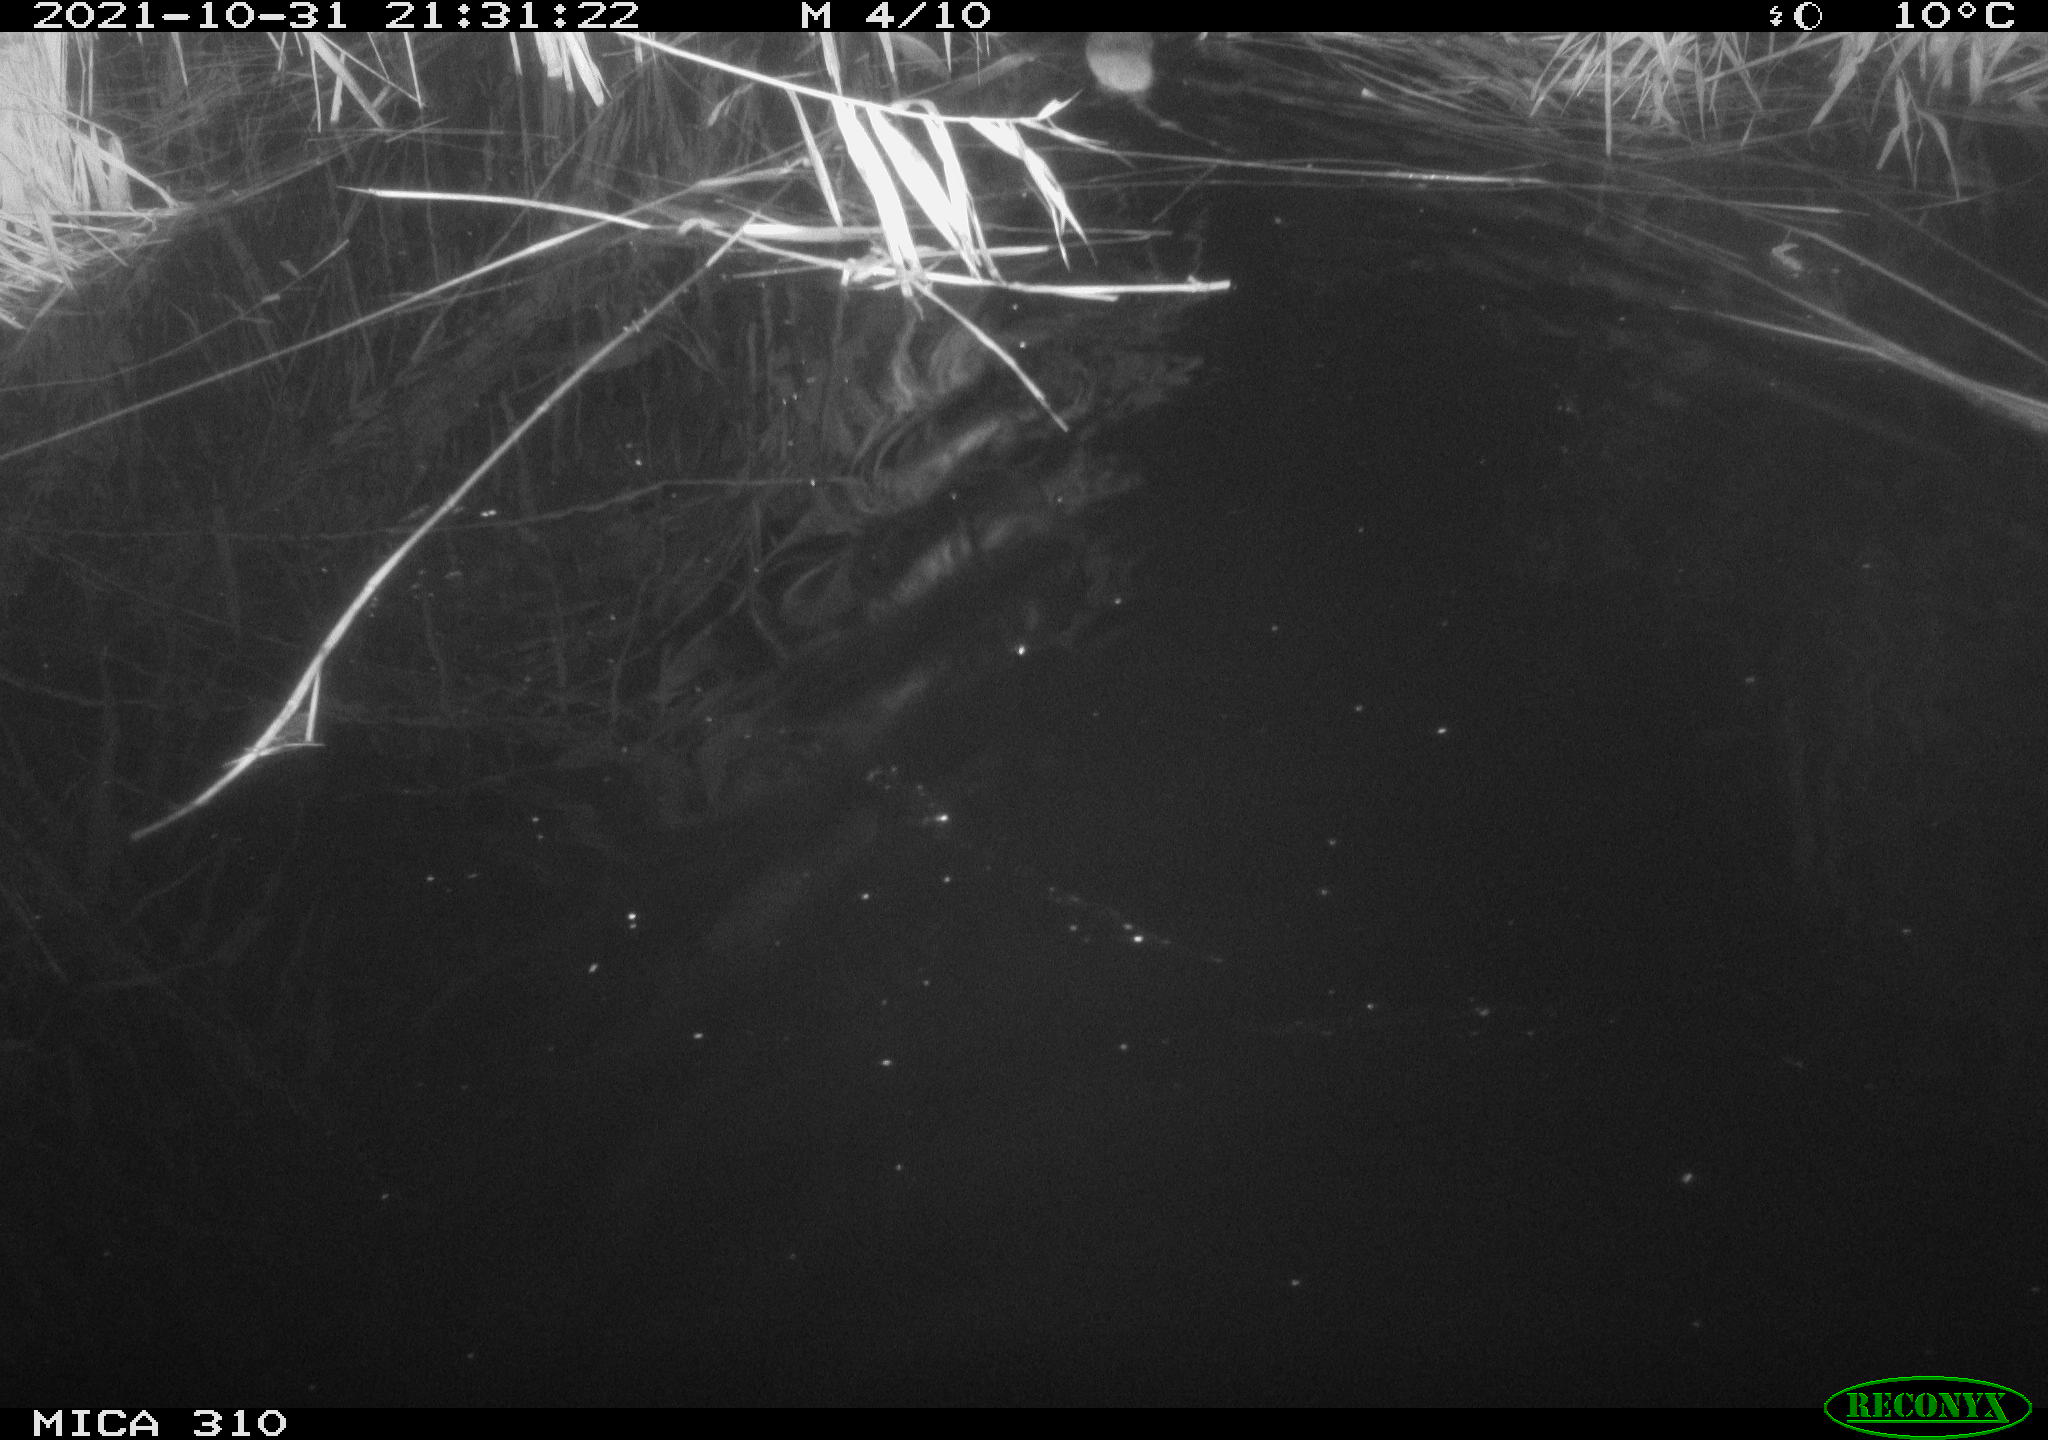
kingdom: Animalia
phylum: Chordata
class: Mammalia
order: Rodentia
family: Muridae
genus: Rattus
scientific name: Rattus norvegicus
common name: Brown rat
